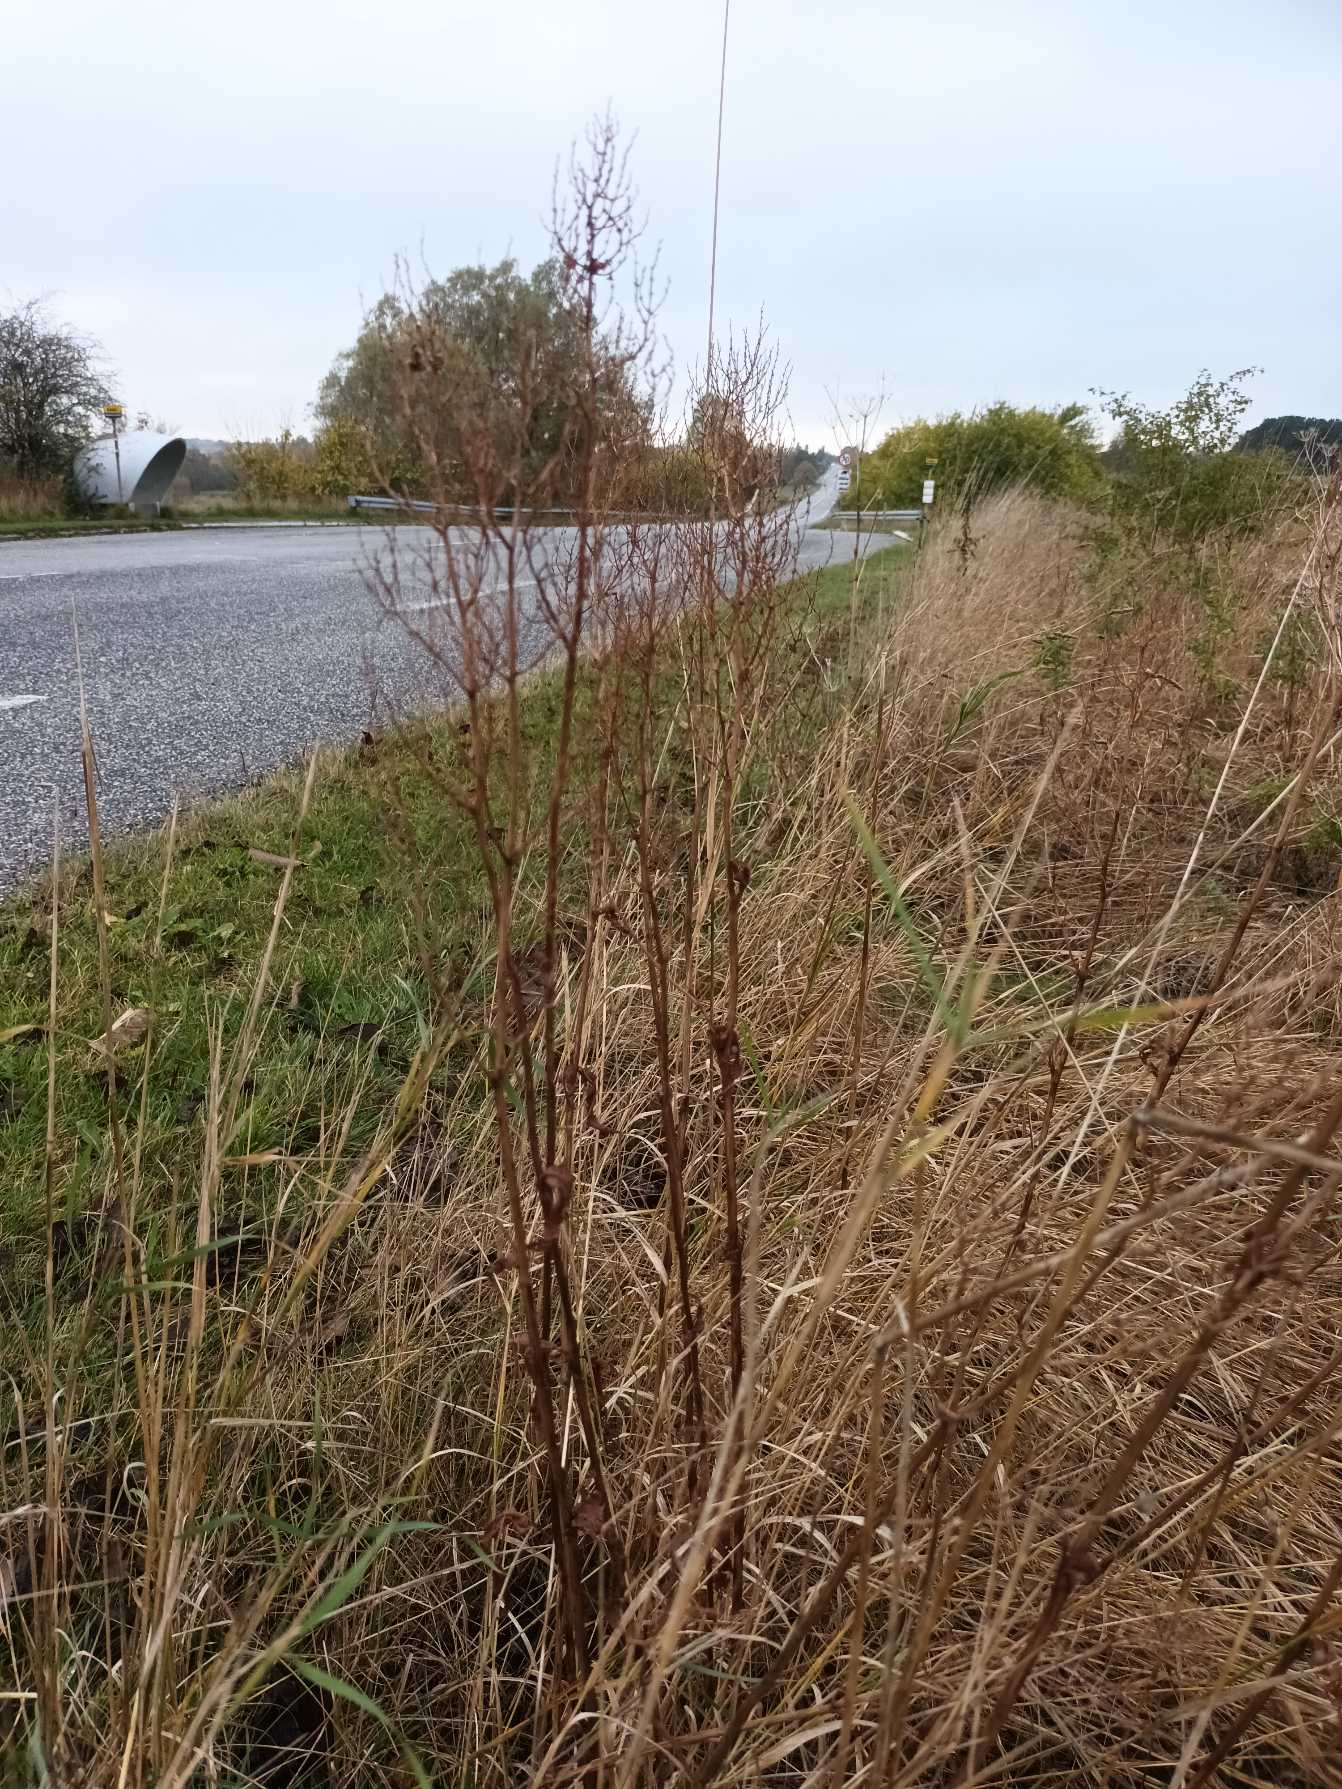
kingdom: Plantae
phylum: Tracheophyta
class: Magnoliopsida
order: Caryophyllales
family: Polygonaceae
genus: Rumex
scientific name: Rumex thyrsiflorus
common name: Dusk-syre
